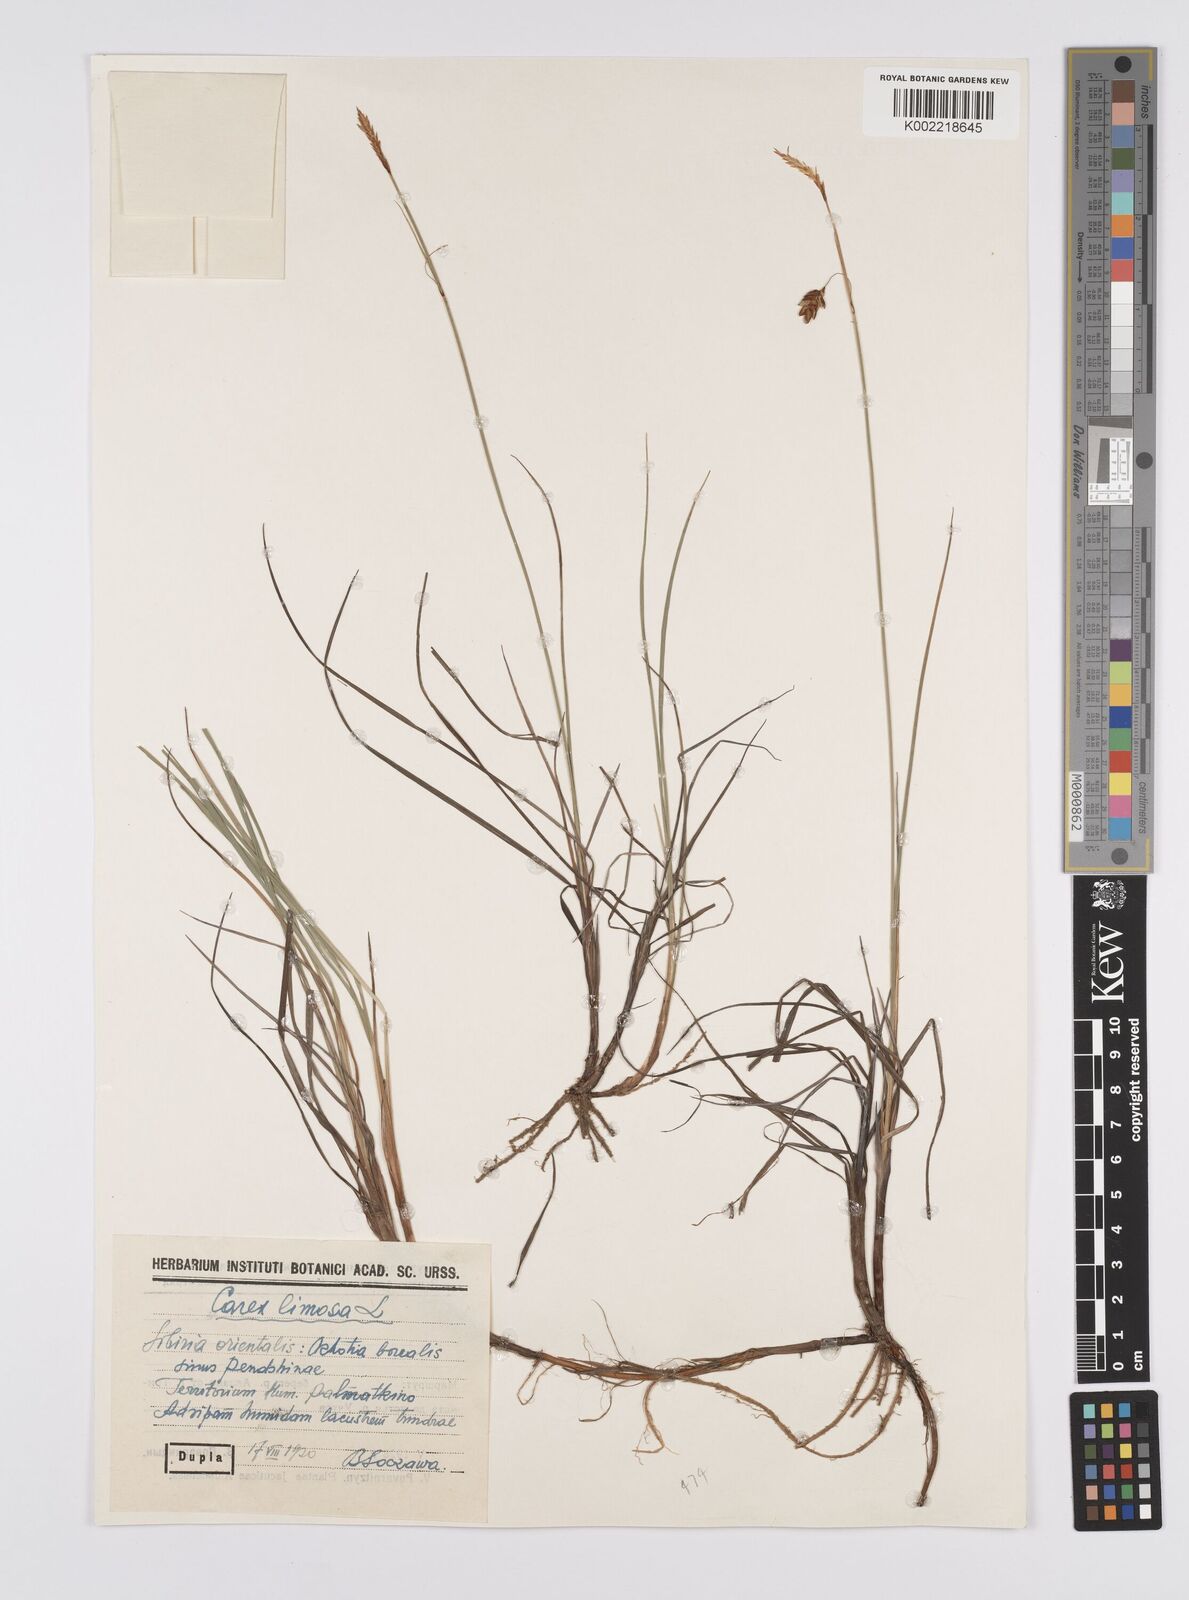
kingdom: Plantae
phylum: Tracheophyta
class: Liliopsida
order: Poales
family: Cyperaceae
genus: Carex
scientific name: Carex limosa
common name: Bog sedge
